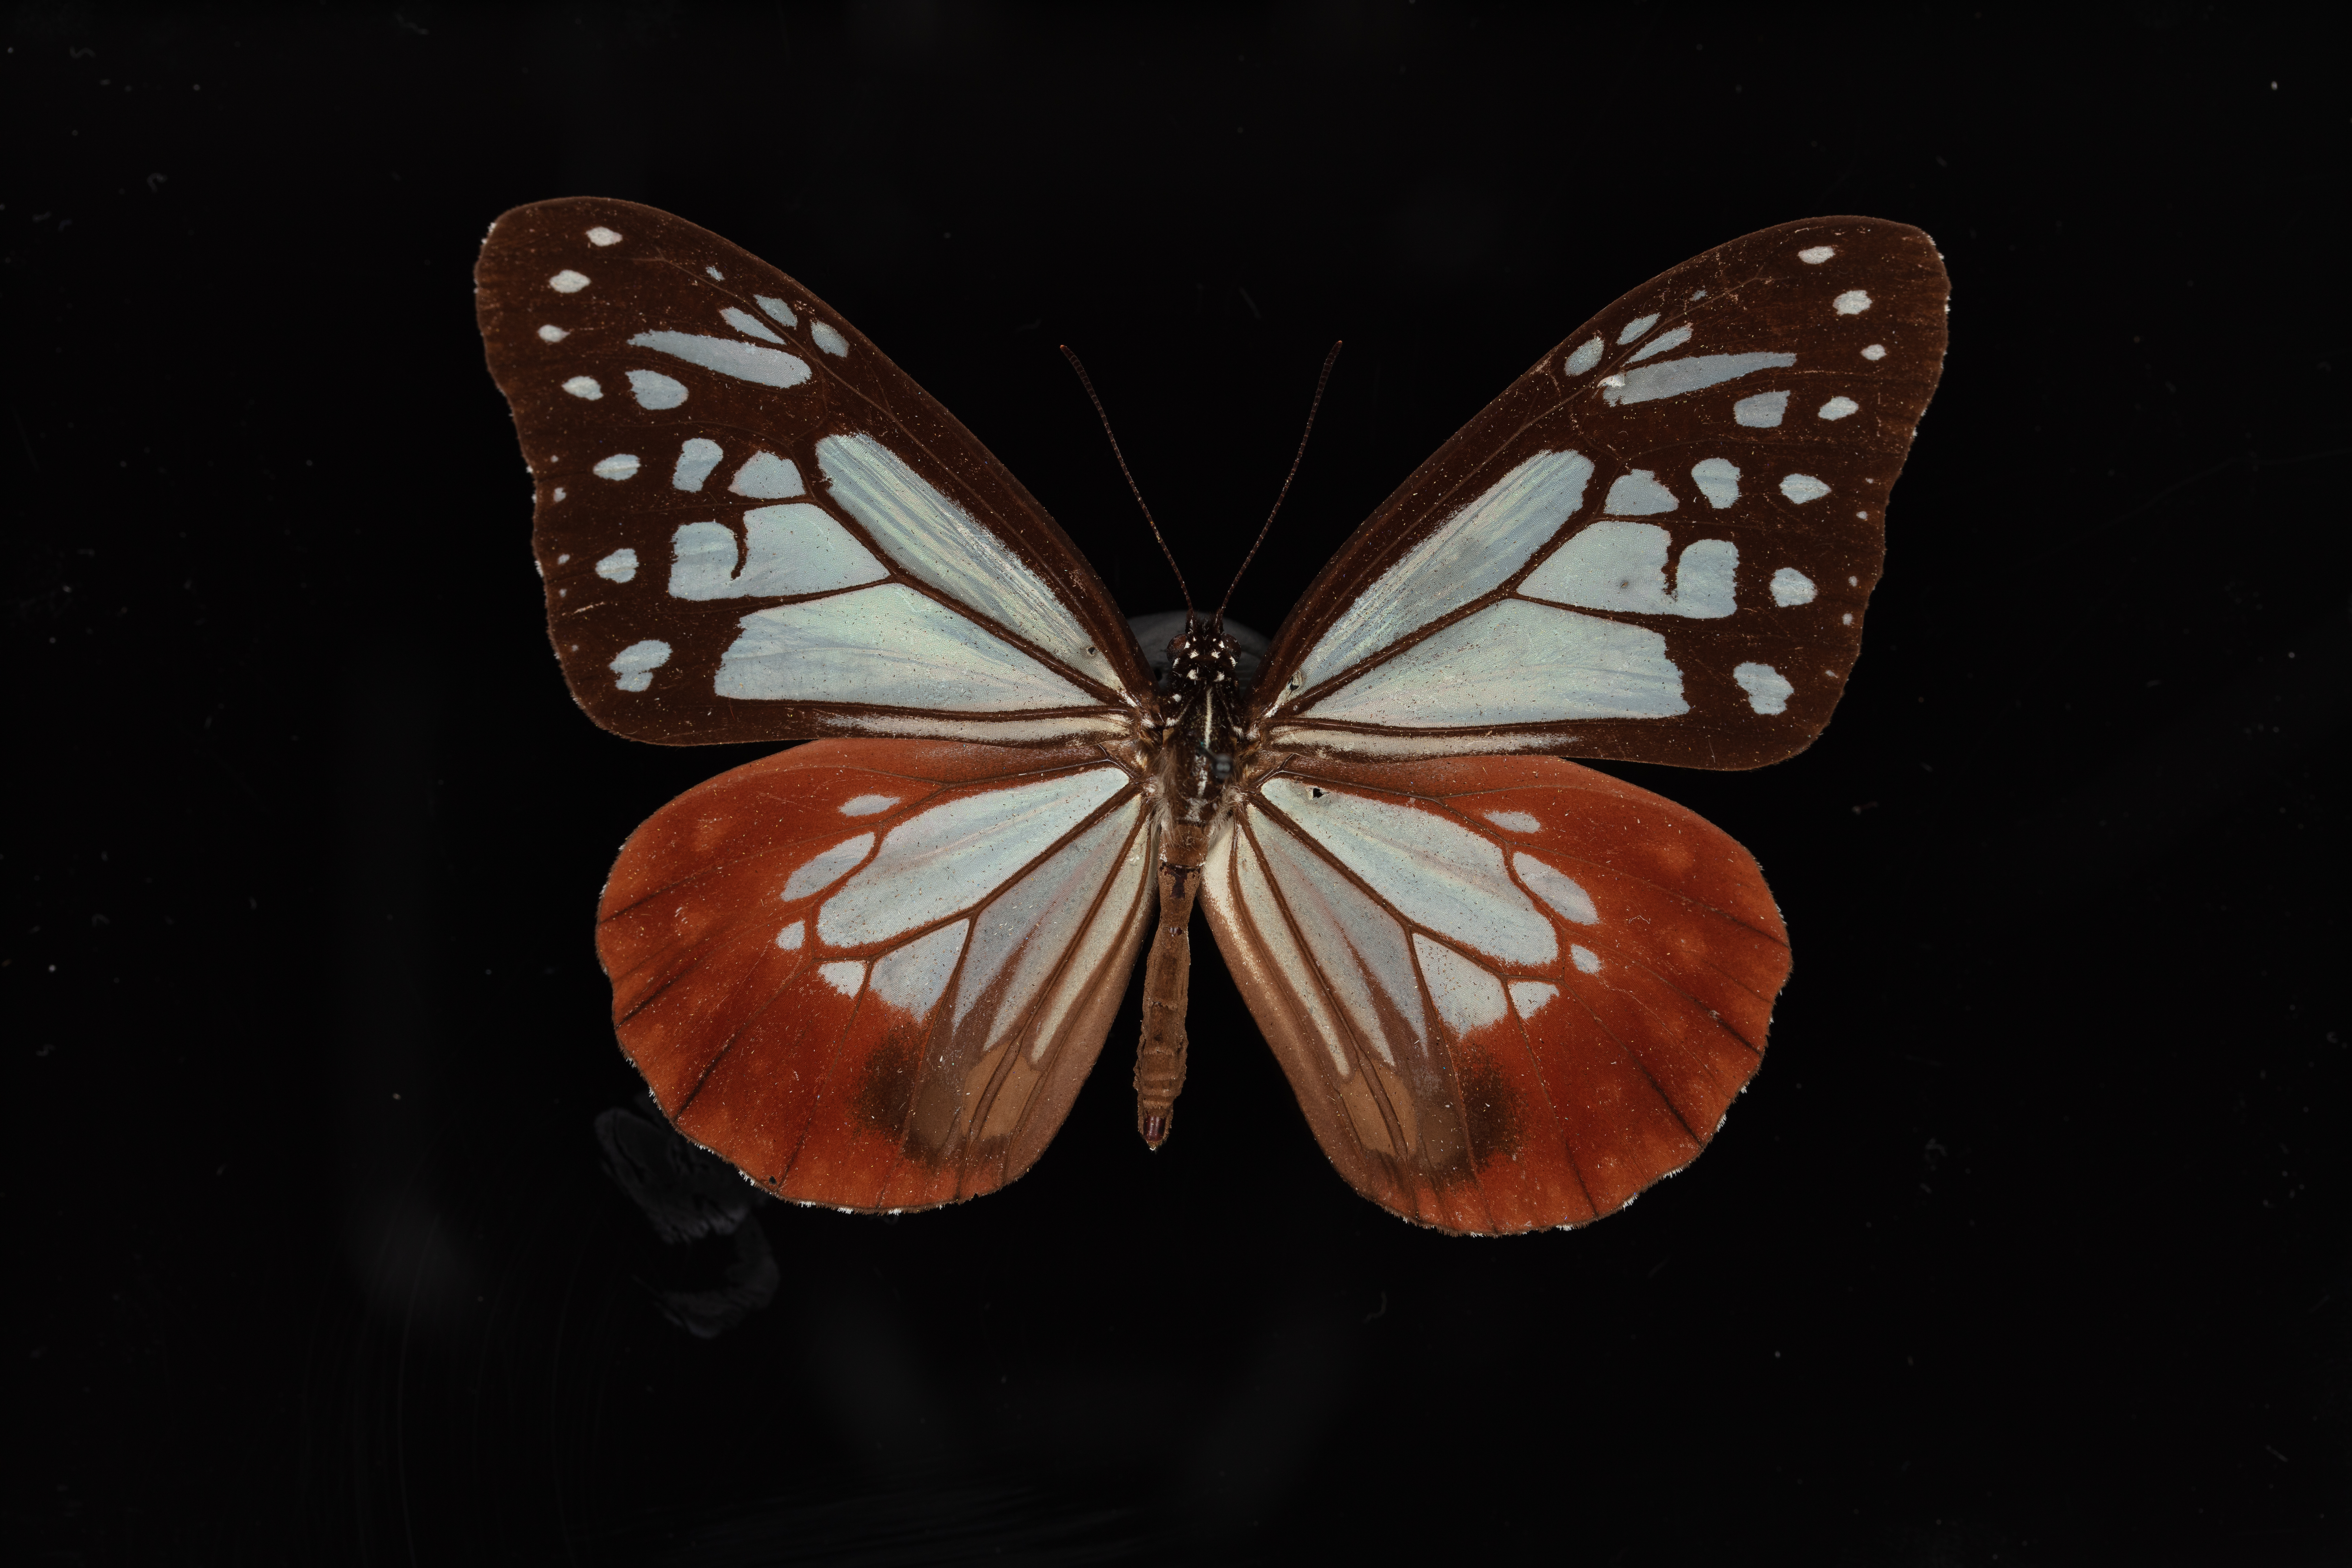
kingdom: Animalia
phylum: Arthropoda
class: Insecta
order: Lepidoptera
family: Nymphalidae
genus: Parantica
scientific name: Parantica sita
